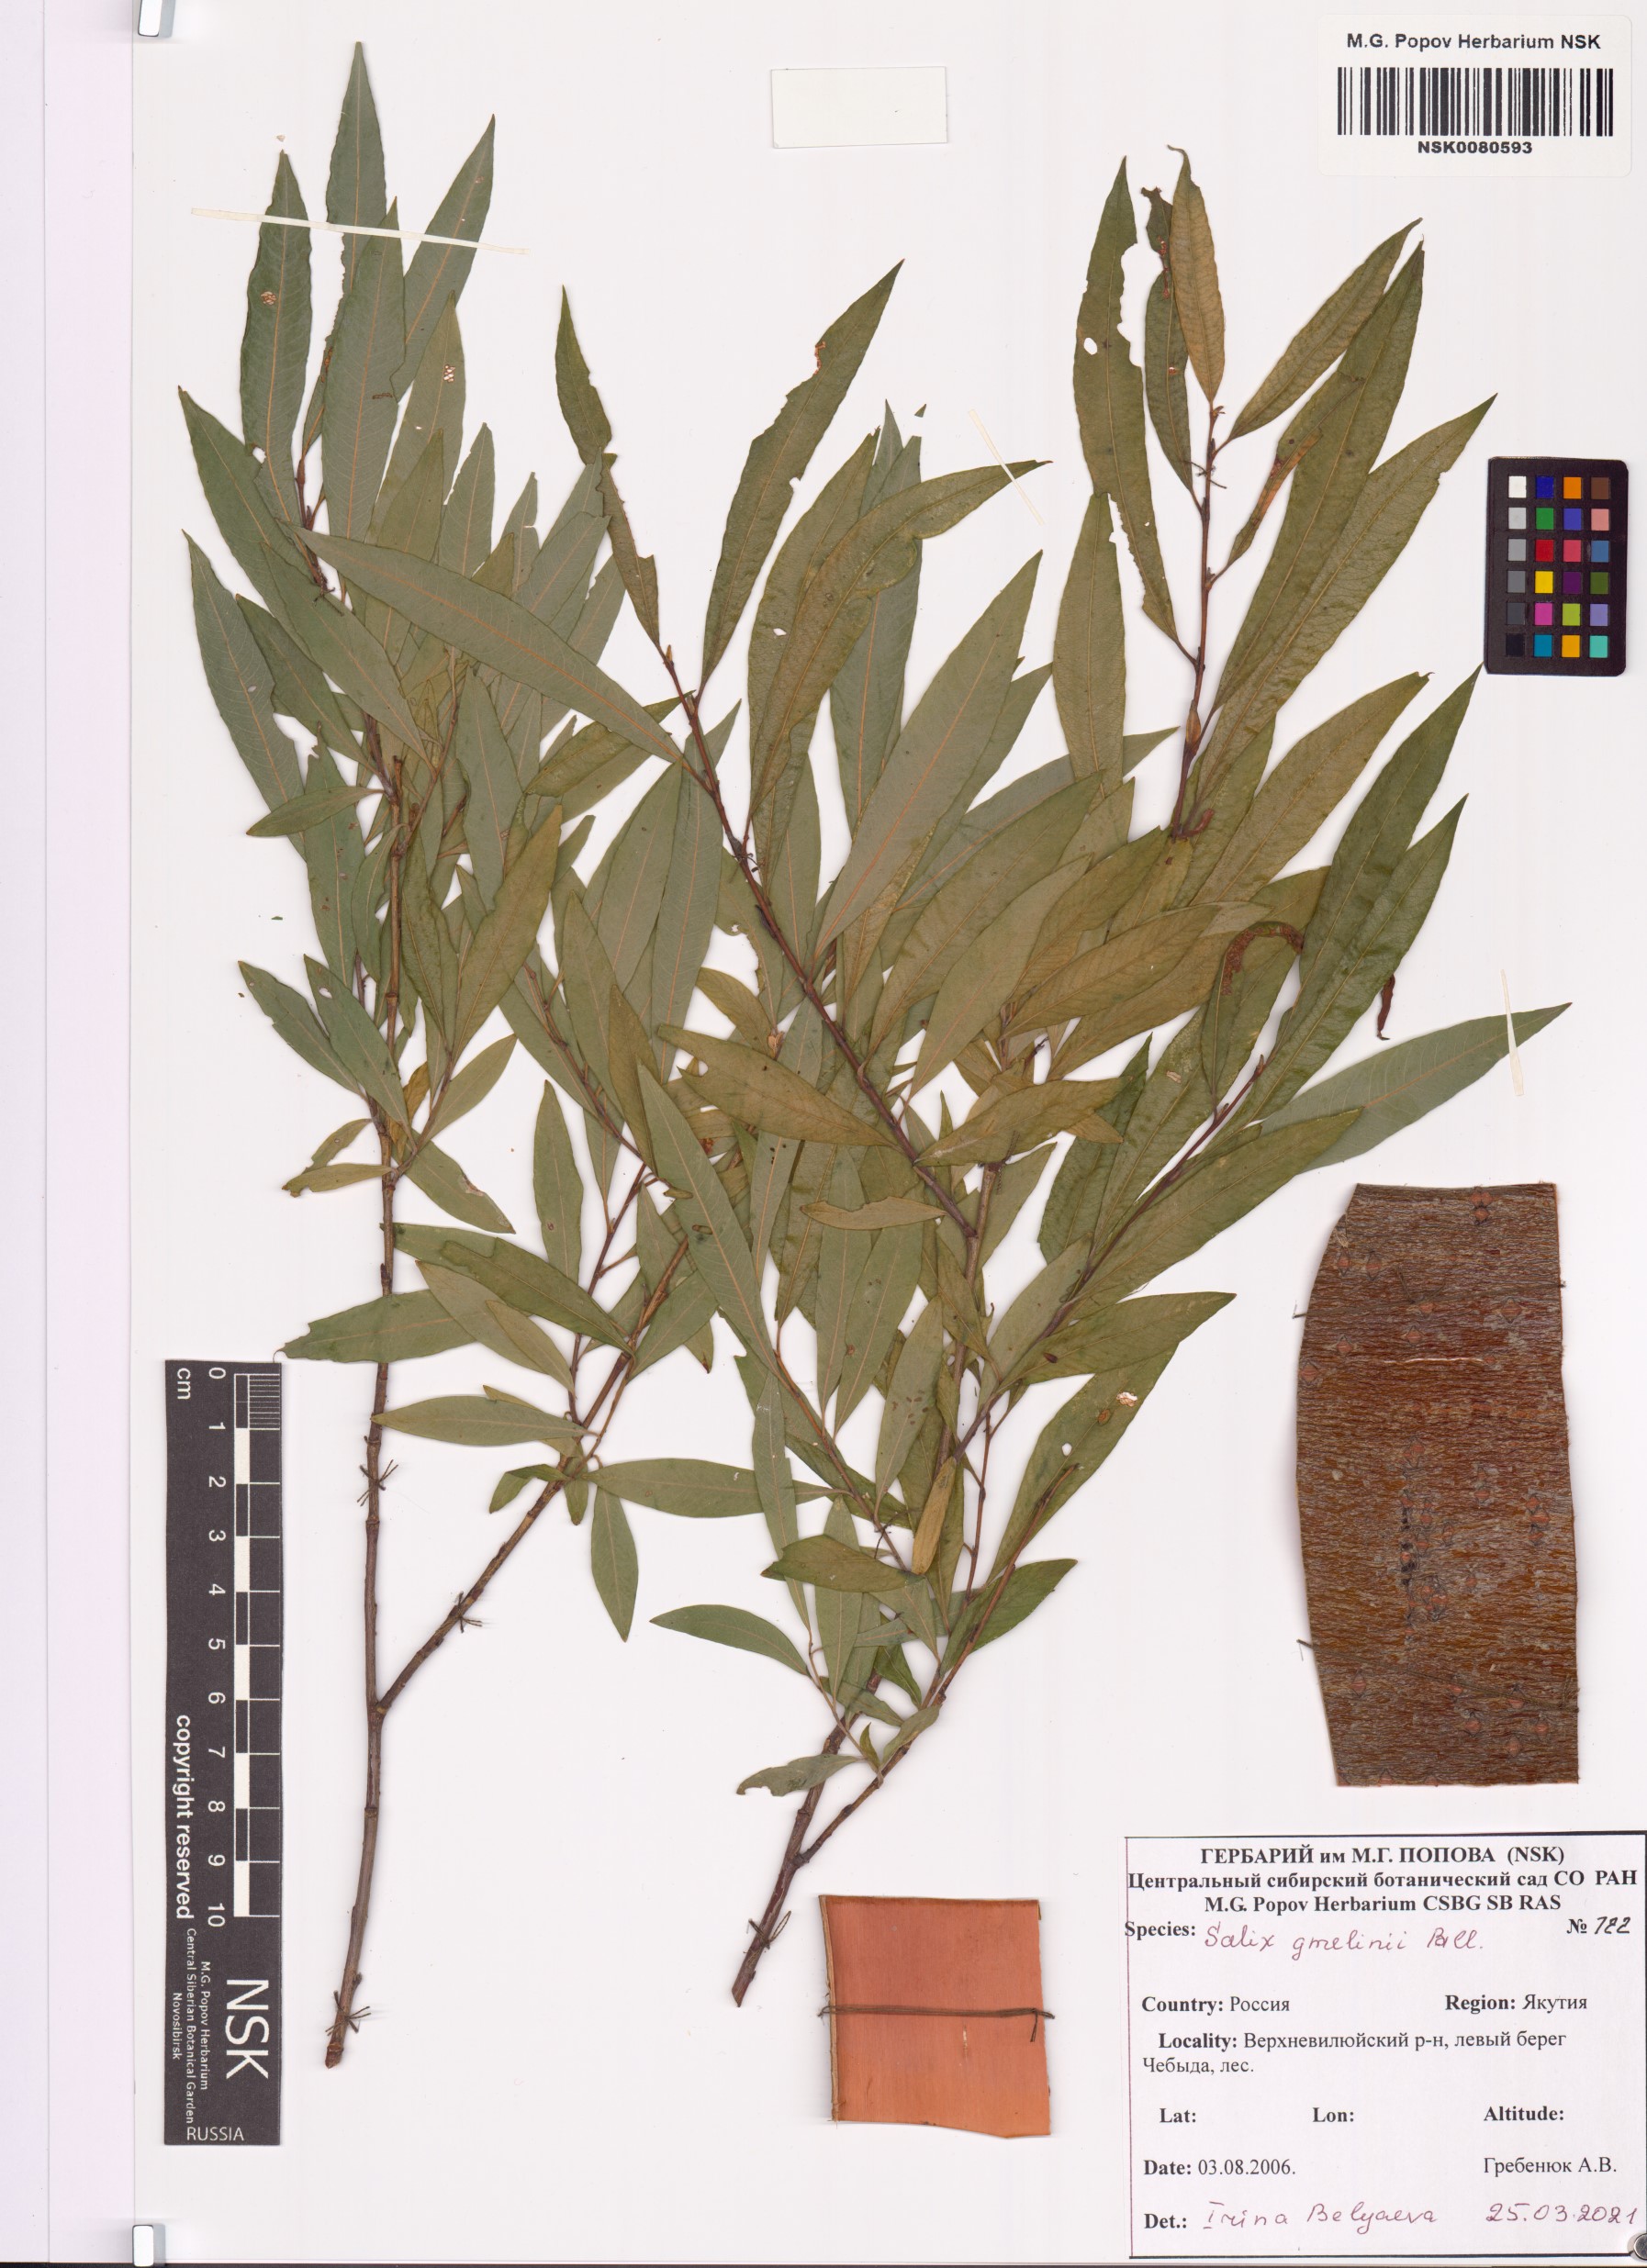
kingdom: Plantae
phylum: Tracheophyta
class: Magnoliopsida
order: Malpighiales
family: Salicaceae
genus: Salix
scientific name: Salix gmelinii
